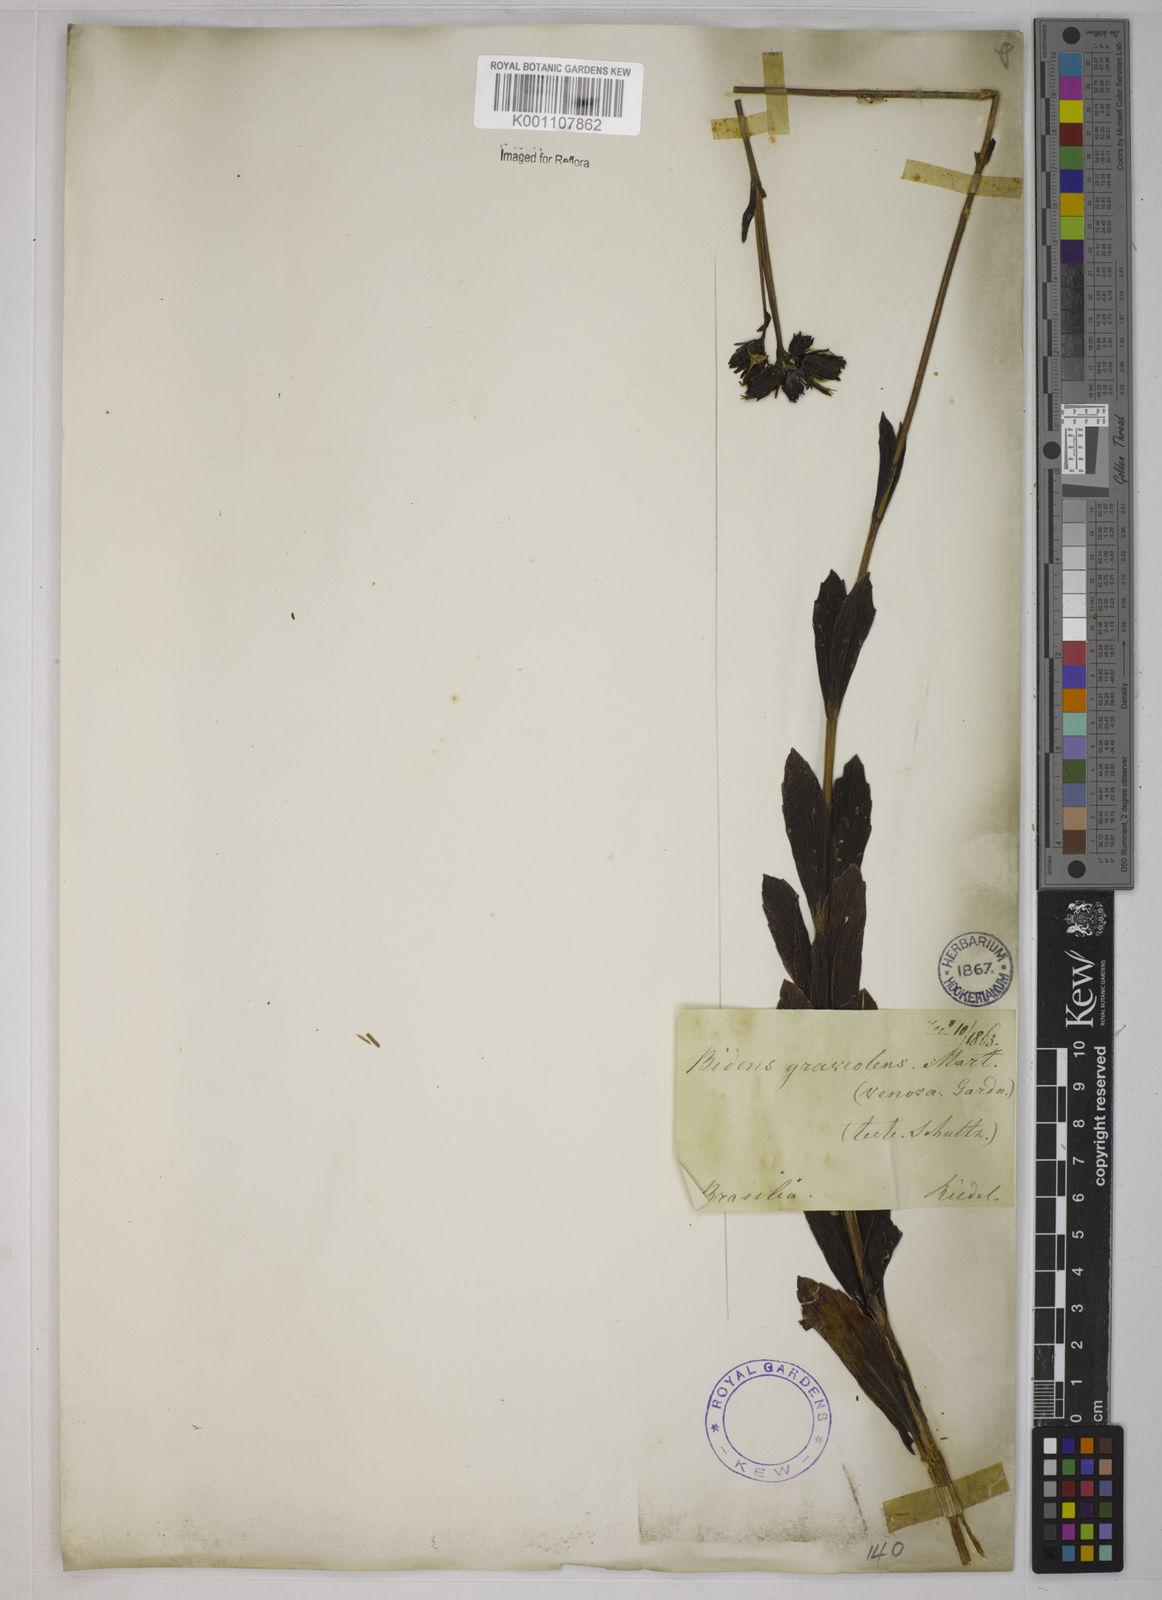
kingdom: Plantae
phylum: Tracheophyta
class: Magnoliopsida
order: Asterales
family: Asteraceae
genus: Bidens
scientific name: Bidens
